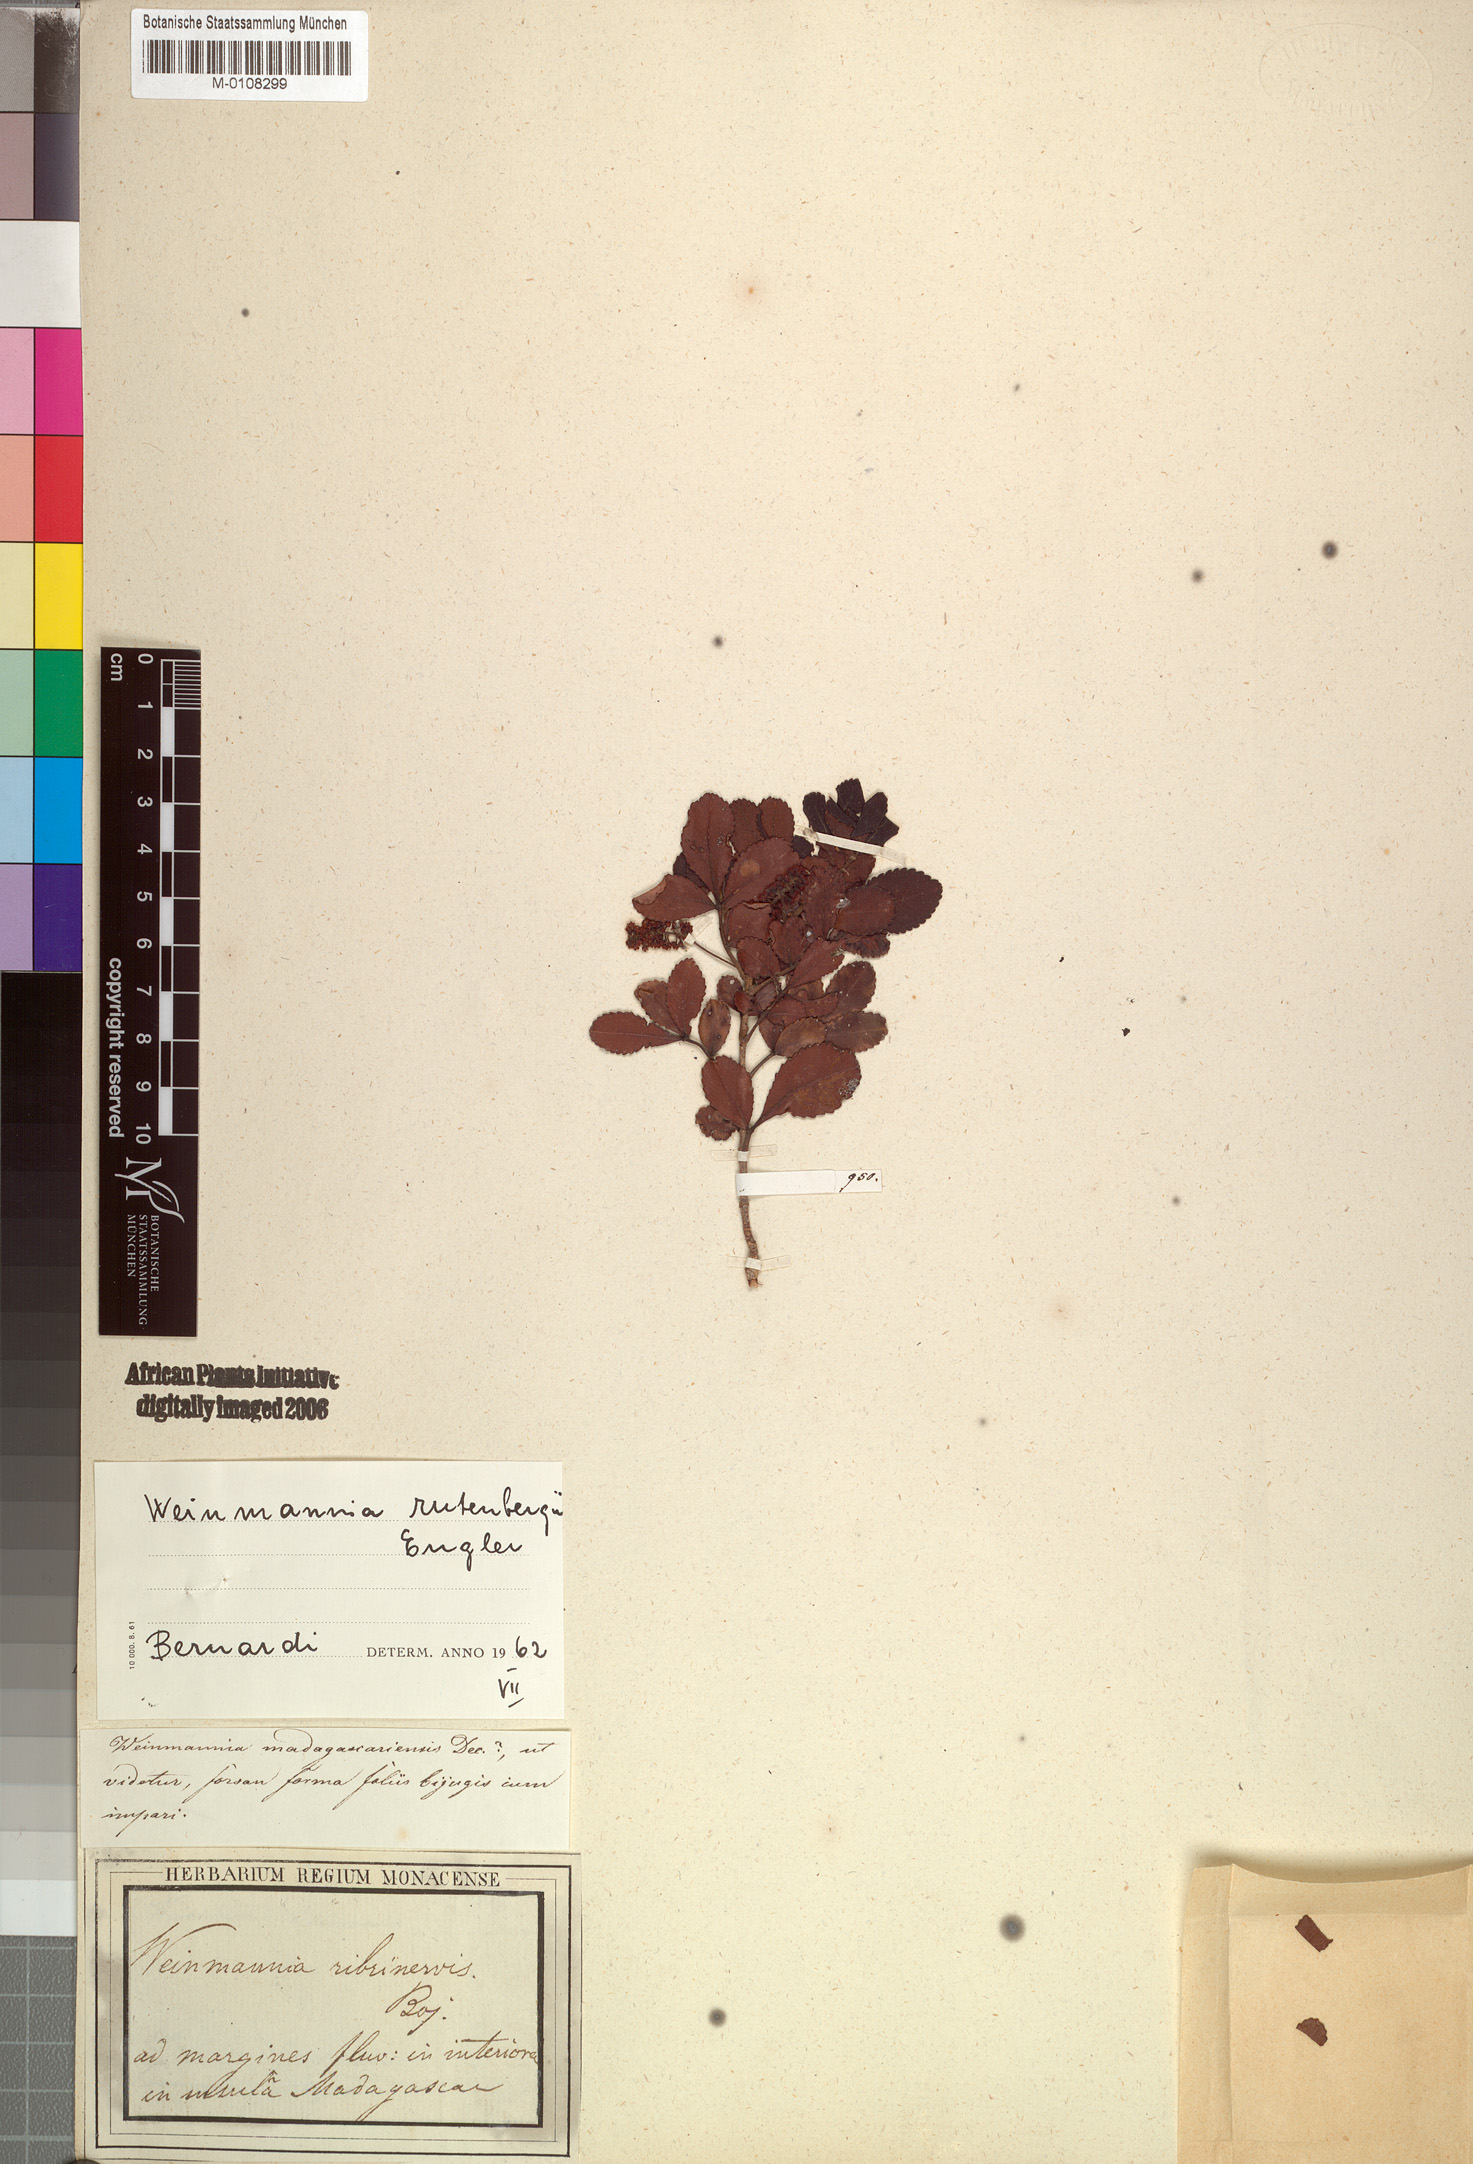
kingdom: Plantae
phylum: Tracheophyta
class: Magnoliopsida
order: Oxalidales
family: Cunoniaceae
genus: Pterophylla
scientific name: Pterophylla rutenbergii
